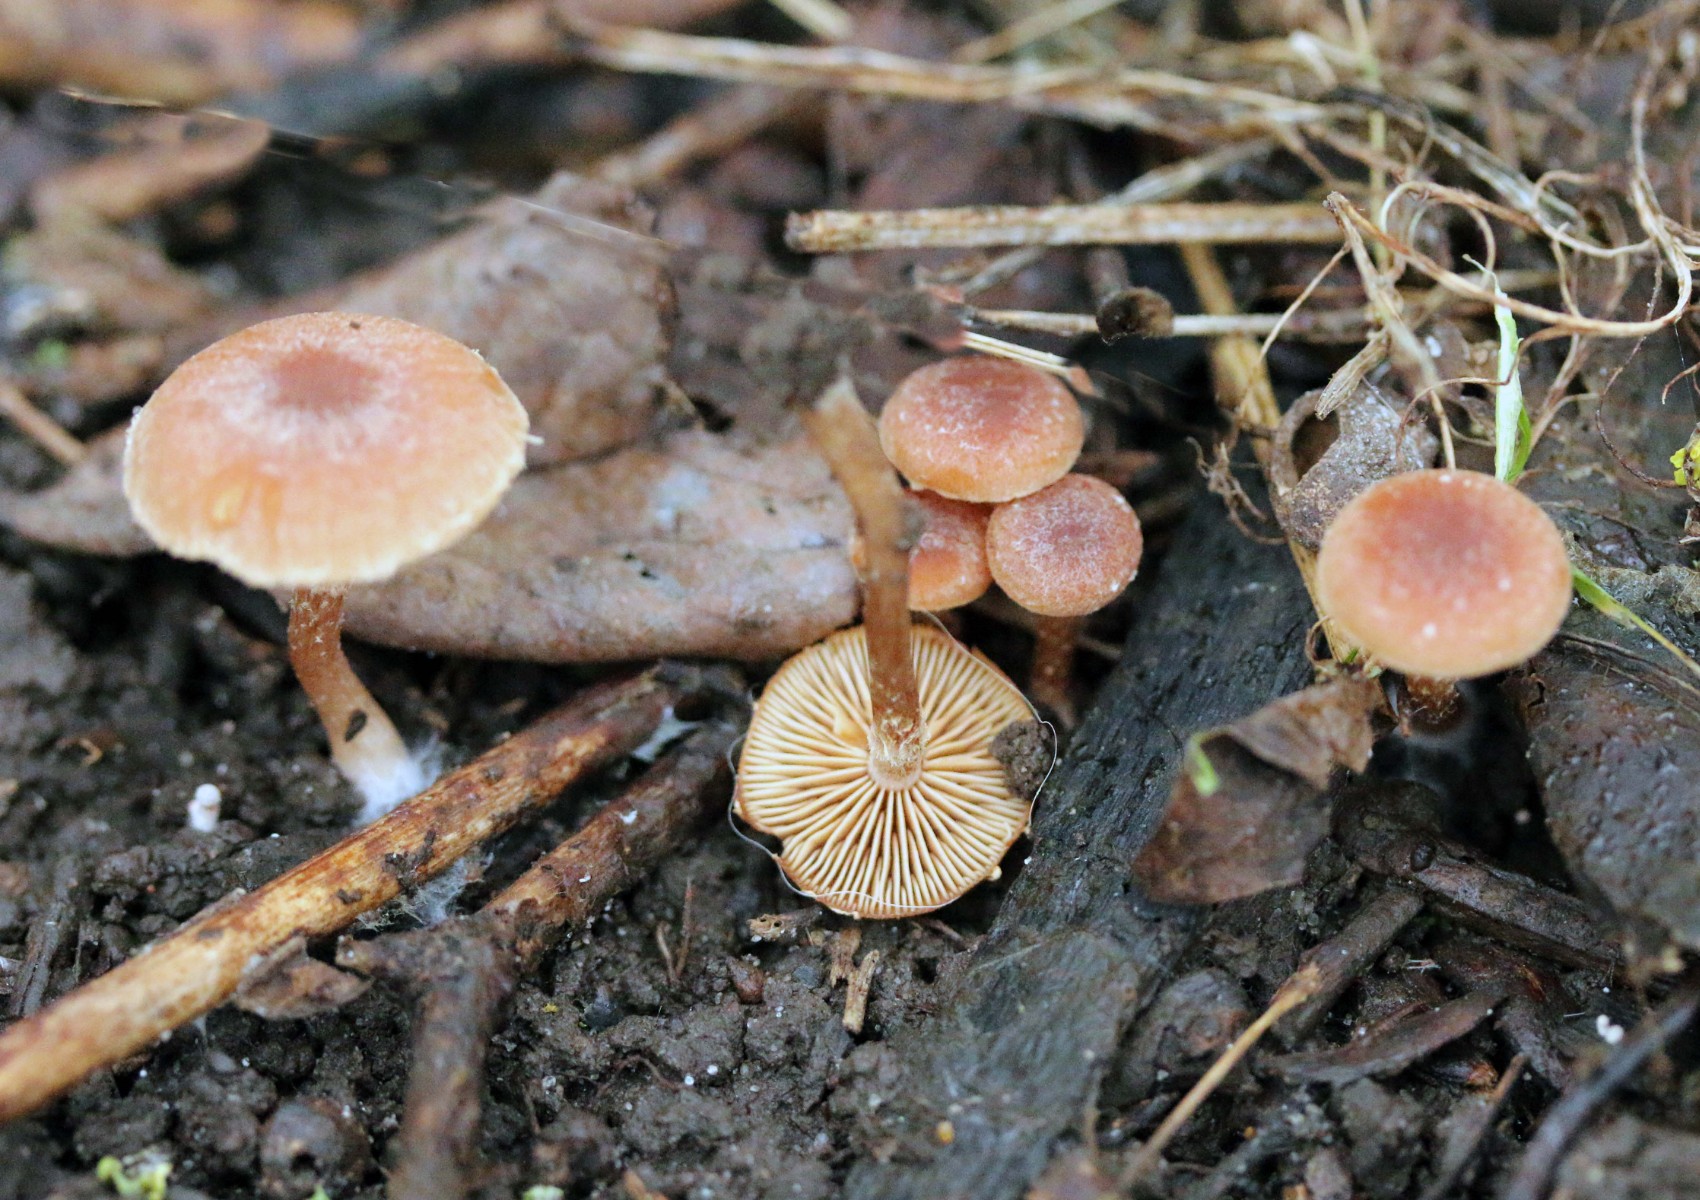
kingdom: Fungi
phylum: Basidiomycota
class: Agaricomycetes
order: Agaricales
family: Tubariaceae
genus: Tubaria
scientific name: Tubaria furfuracea
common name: kliddet fnughat
